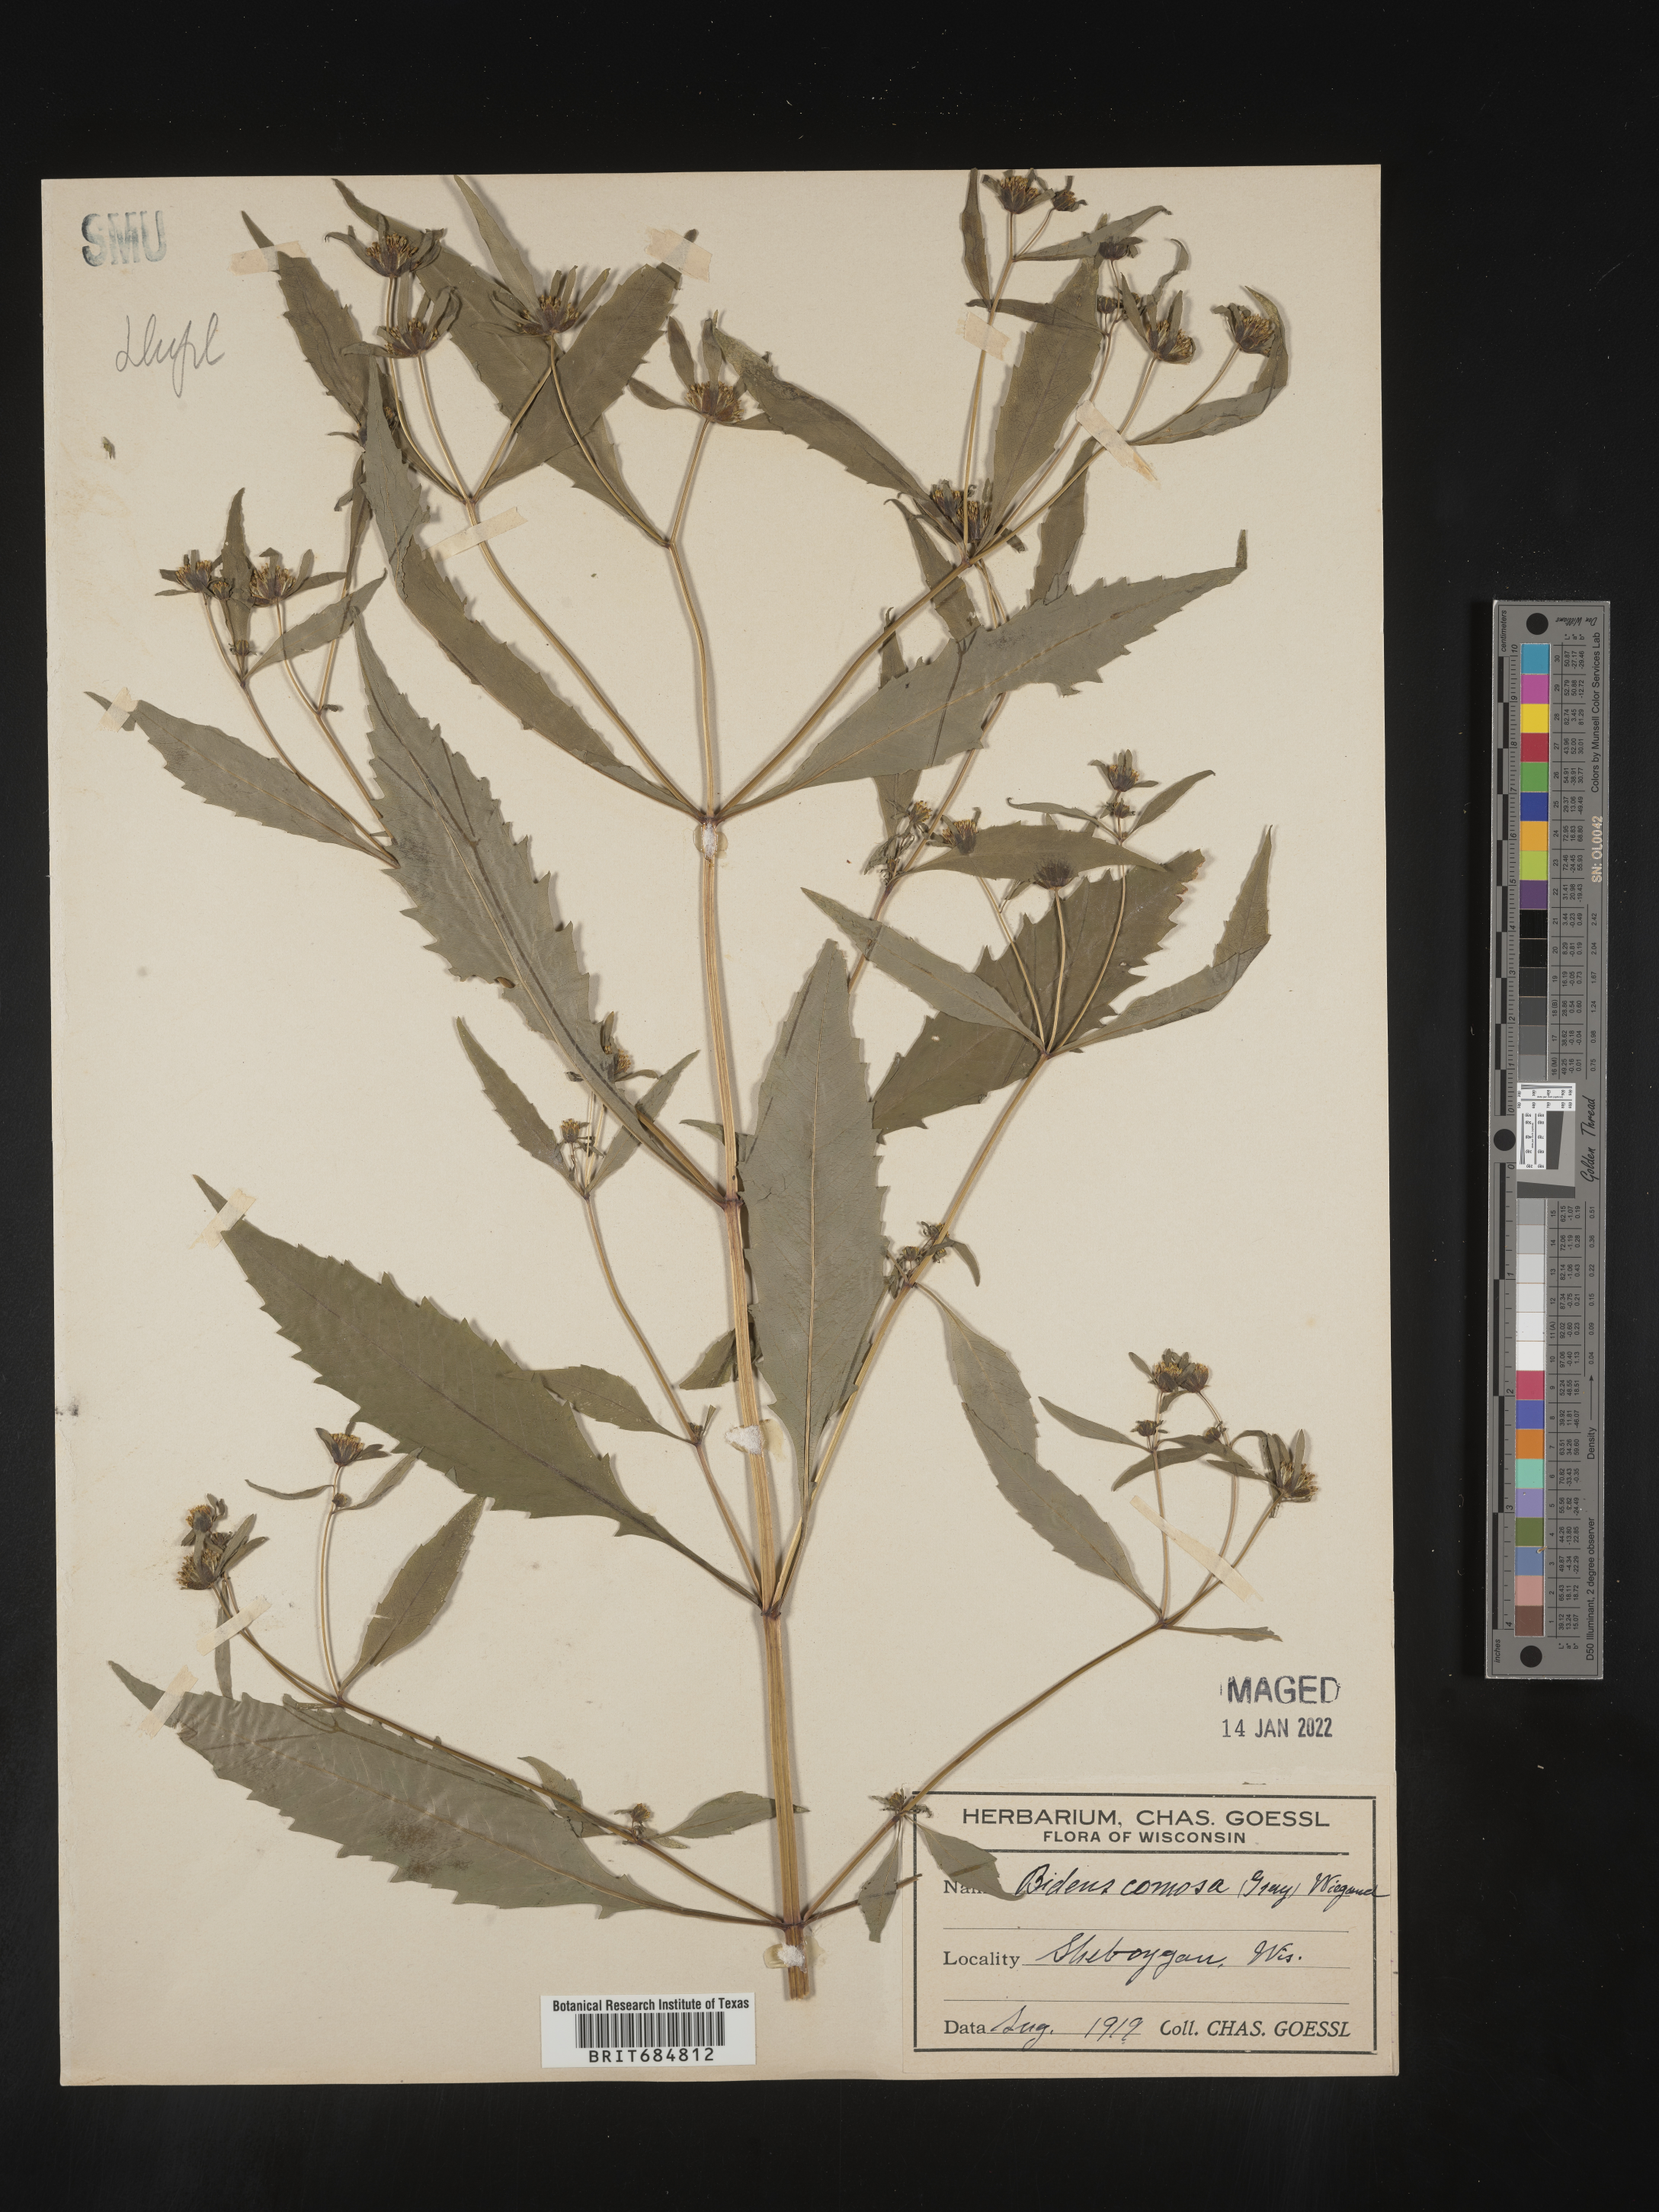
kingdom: Plantae
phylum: Tracheophyta
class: Magnoliopsida
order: Asterales
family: Asteraceae
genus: Bidens
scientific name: Bidens tripartita
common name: Trifid bur-marigold
